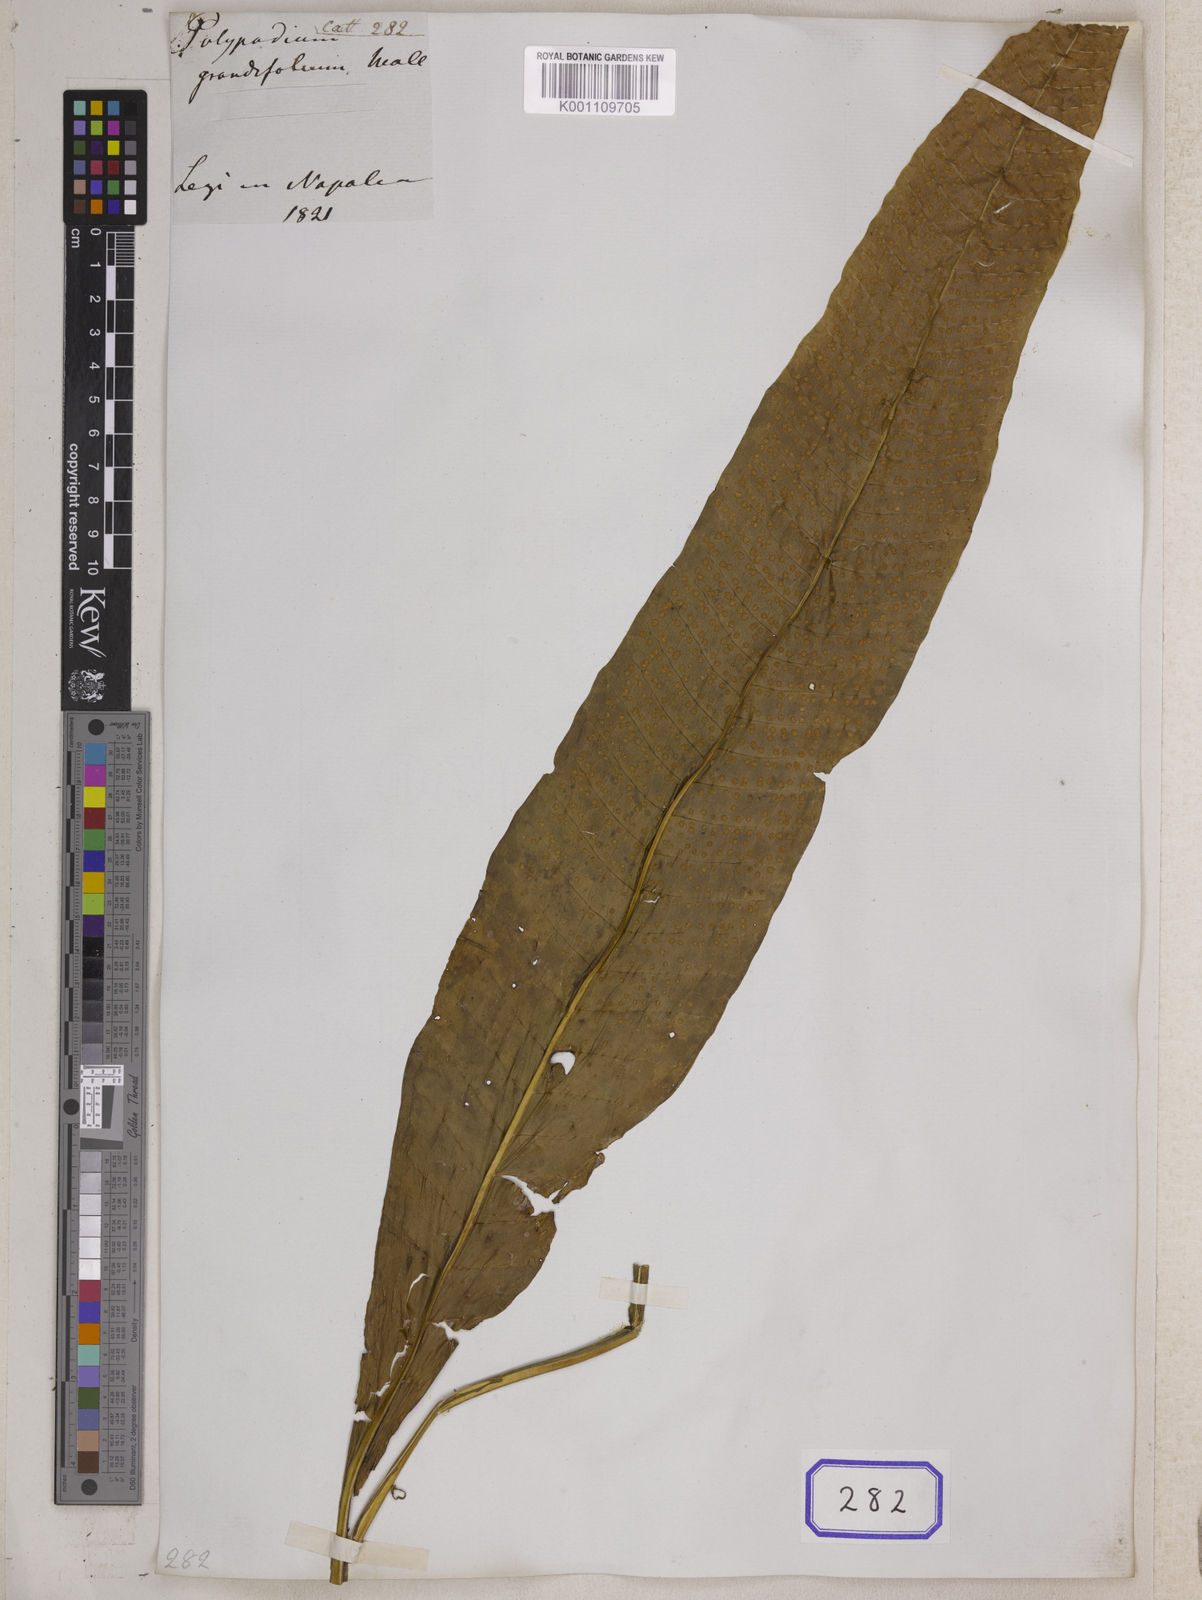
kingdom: Plantae
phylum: Tracheophyta
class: Polypodiopsida
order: Polypodiales
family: Polypodiaceae
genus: Bosmania
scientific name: Bosmania membranacea
